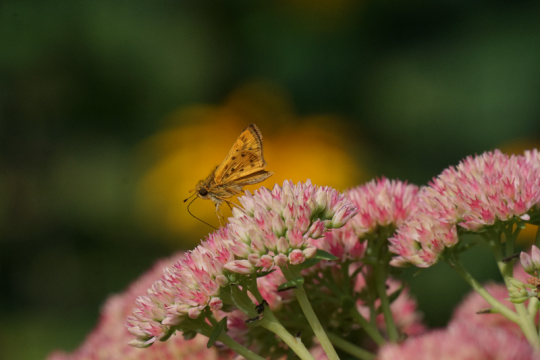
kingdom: Animalia
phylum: Arthropoda
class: Insecta
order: Lepidoptera
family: Hesperiidae
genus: Hylephila
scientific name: Hylephila phyleus
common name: Fiery Skipper
